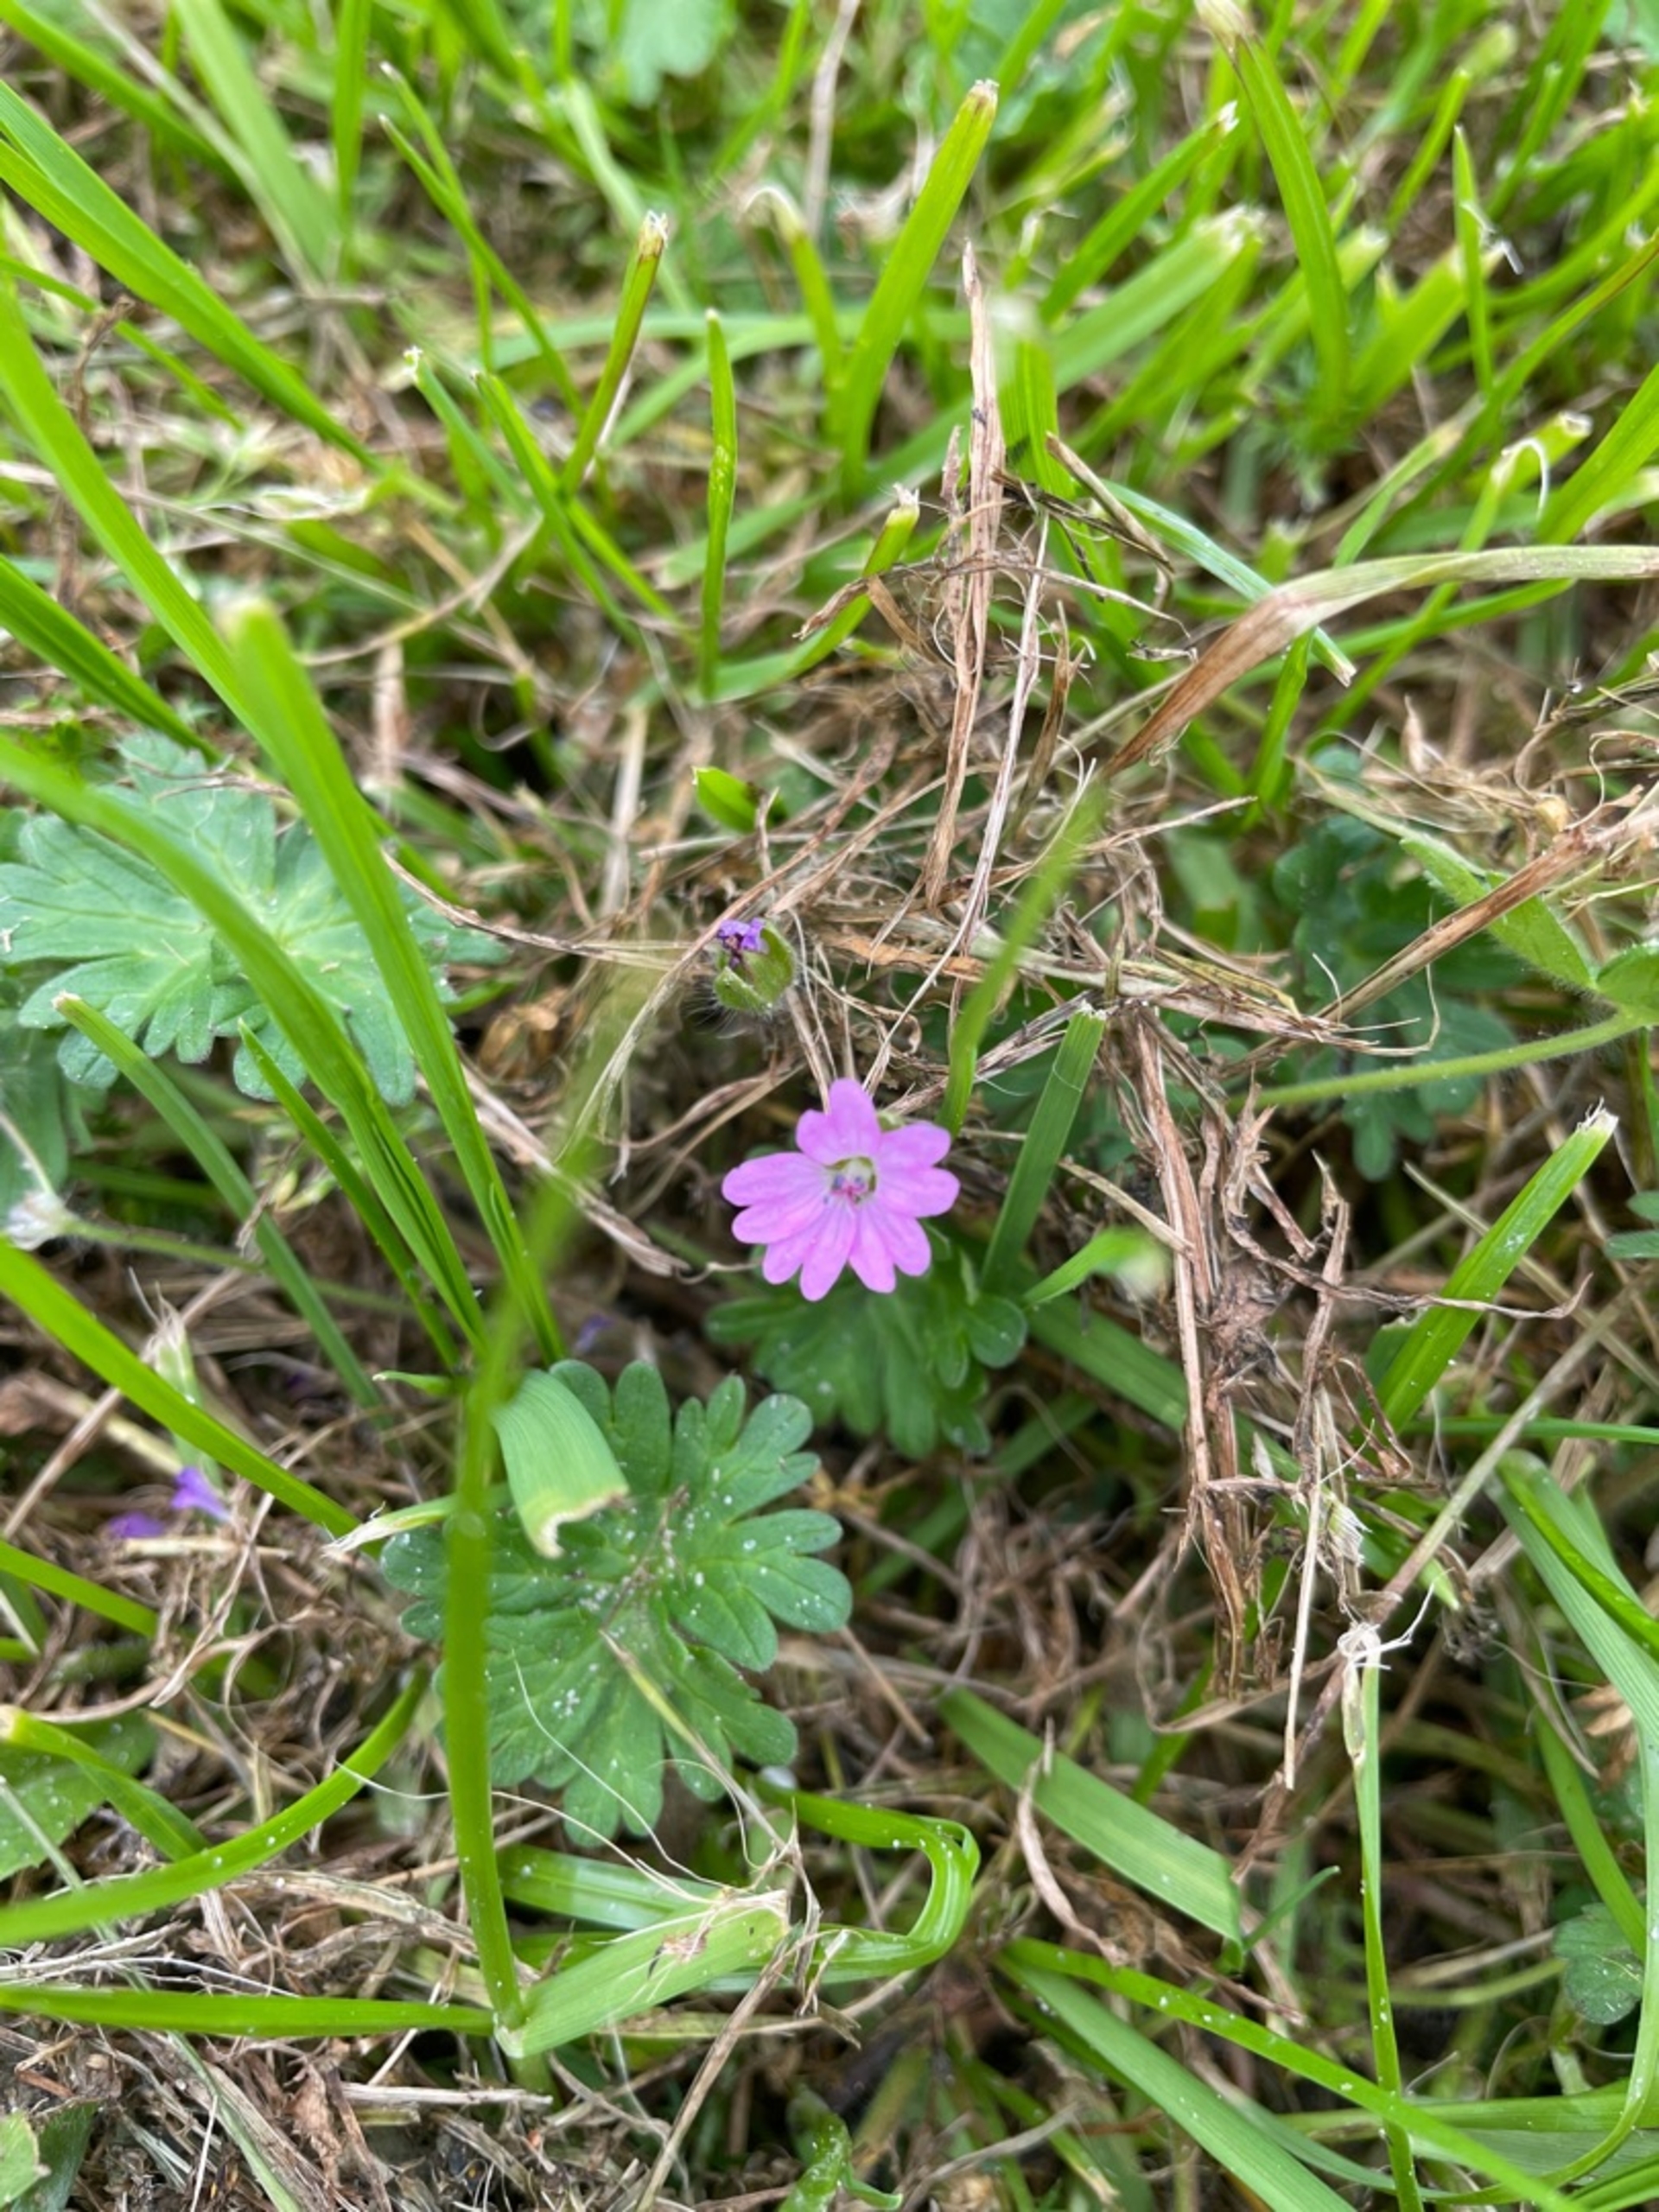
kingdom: Plantae
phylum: Tracheophyta
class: Magnoliopsida
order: Geraniales
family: Geraniaceae
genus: Geranium
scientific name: Geranium molle
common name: Blød storkenæb
